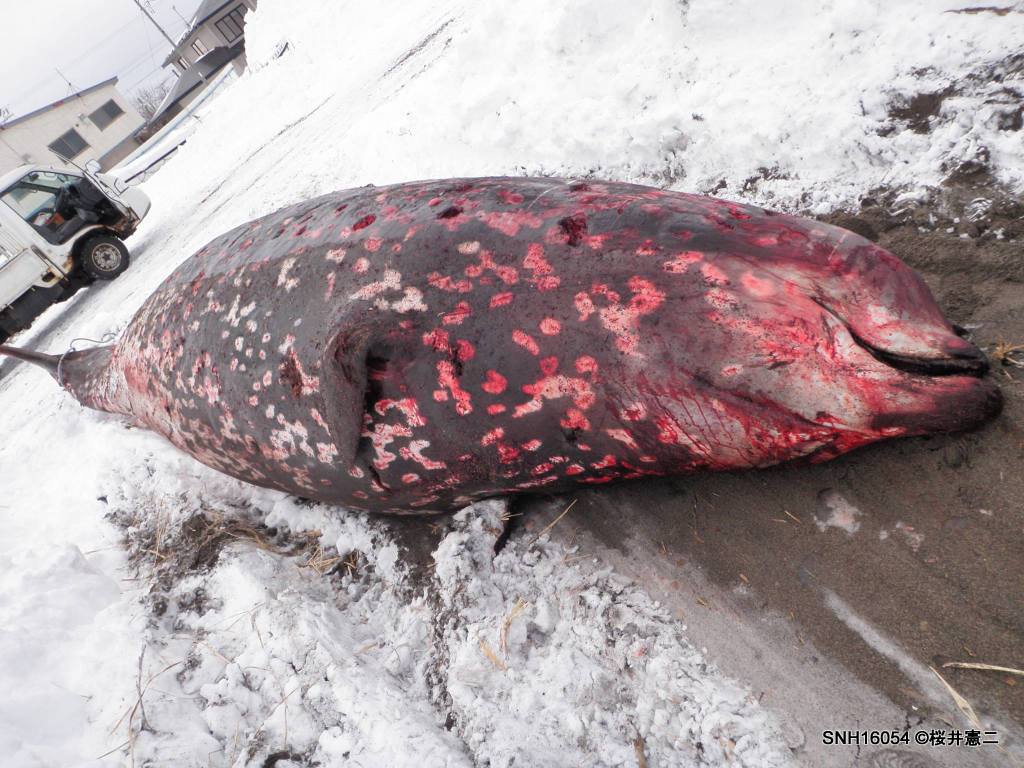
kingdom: Animalia
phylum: Chordata
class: Mammalia
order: Cetacea
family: Hyperoodontidae
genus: Ziphius
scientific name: Ziphius cavirostris
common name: Cuvier's beaked whale
